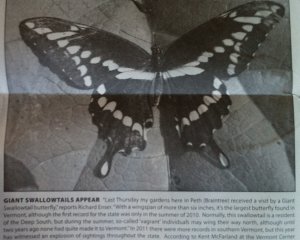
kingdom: Animalia
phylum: Arthropoda
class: Insecta
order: Lepidoptera
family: Papilionidae
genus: Papilio
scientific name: Papilio cresphontes
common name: Eastern Giant Swallowtail
